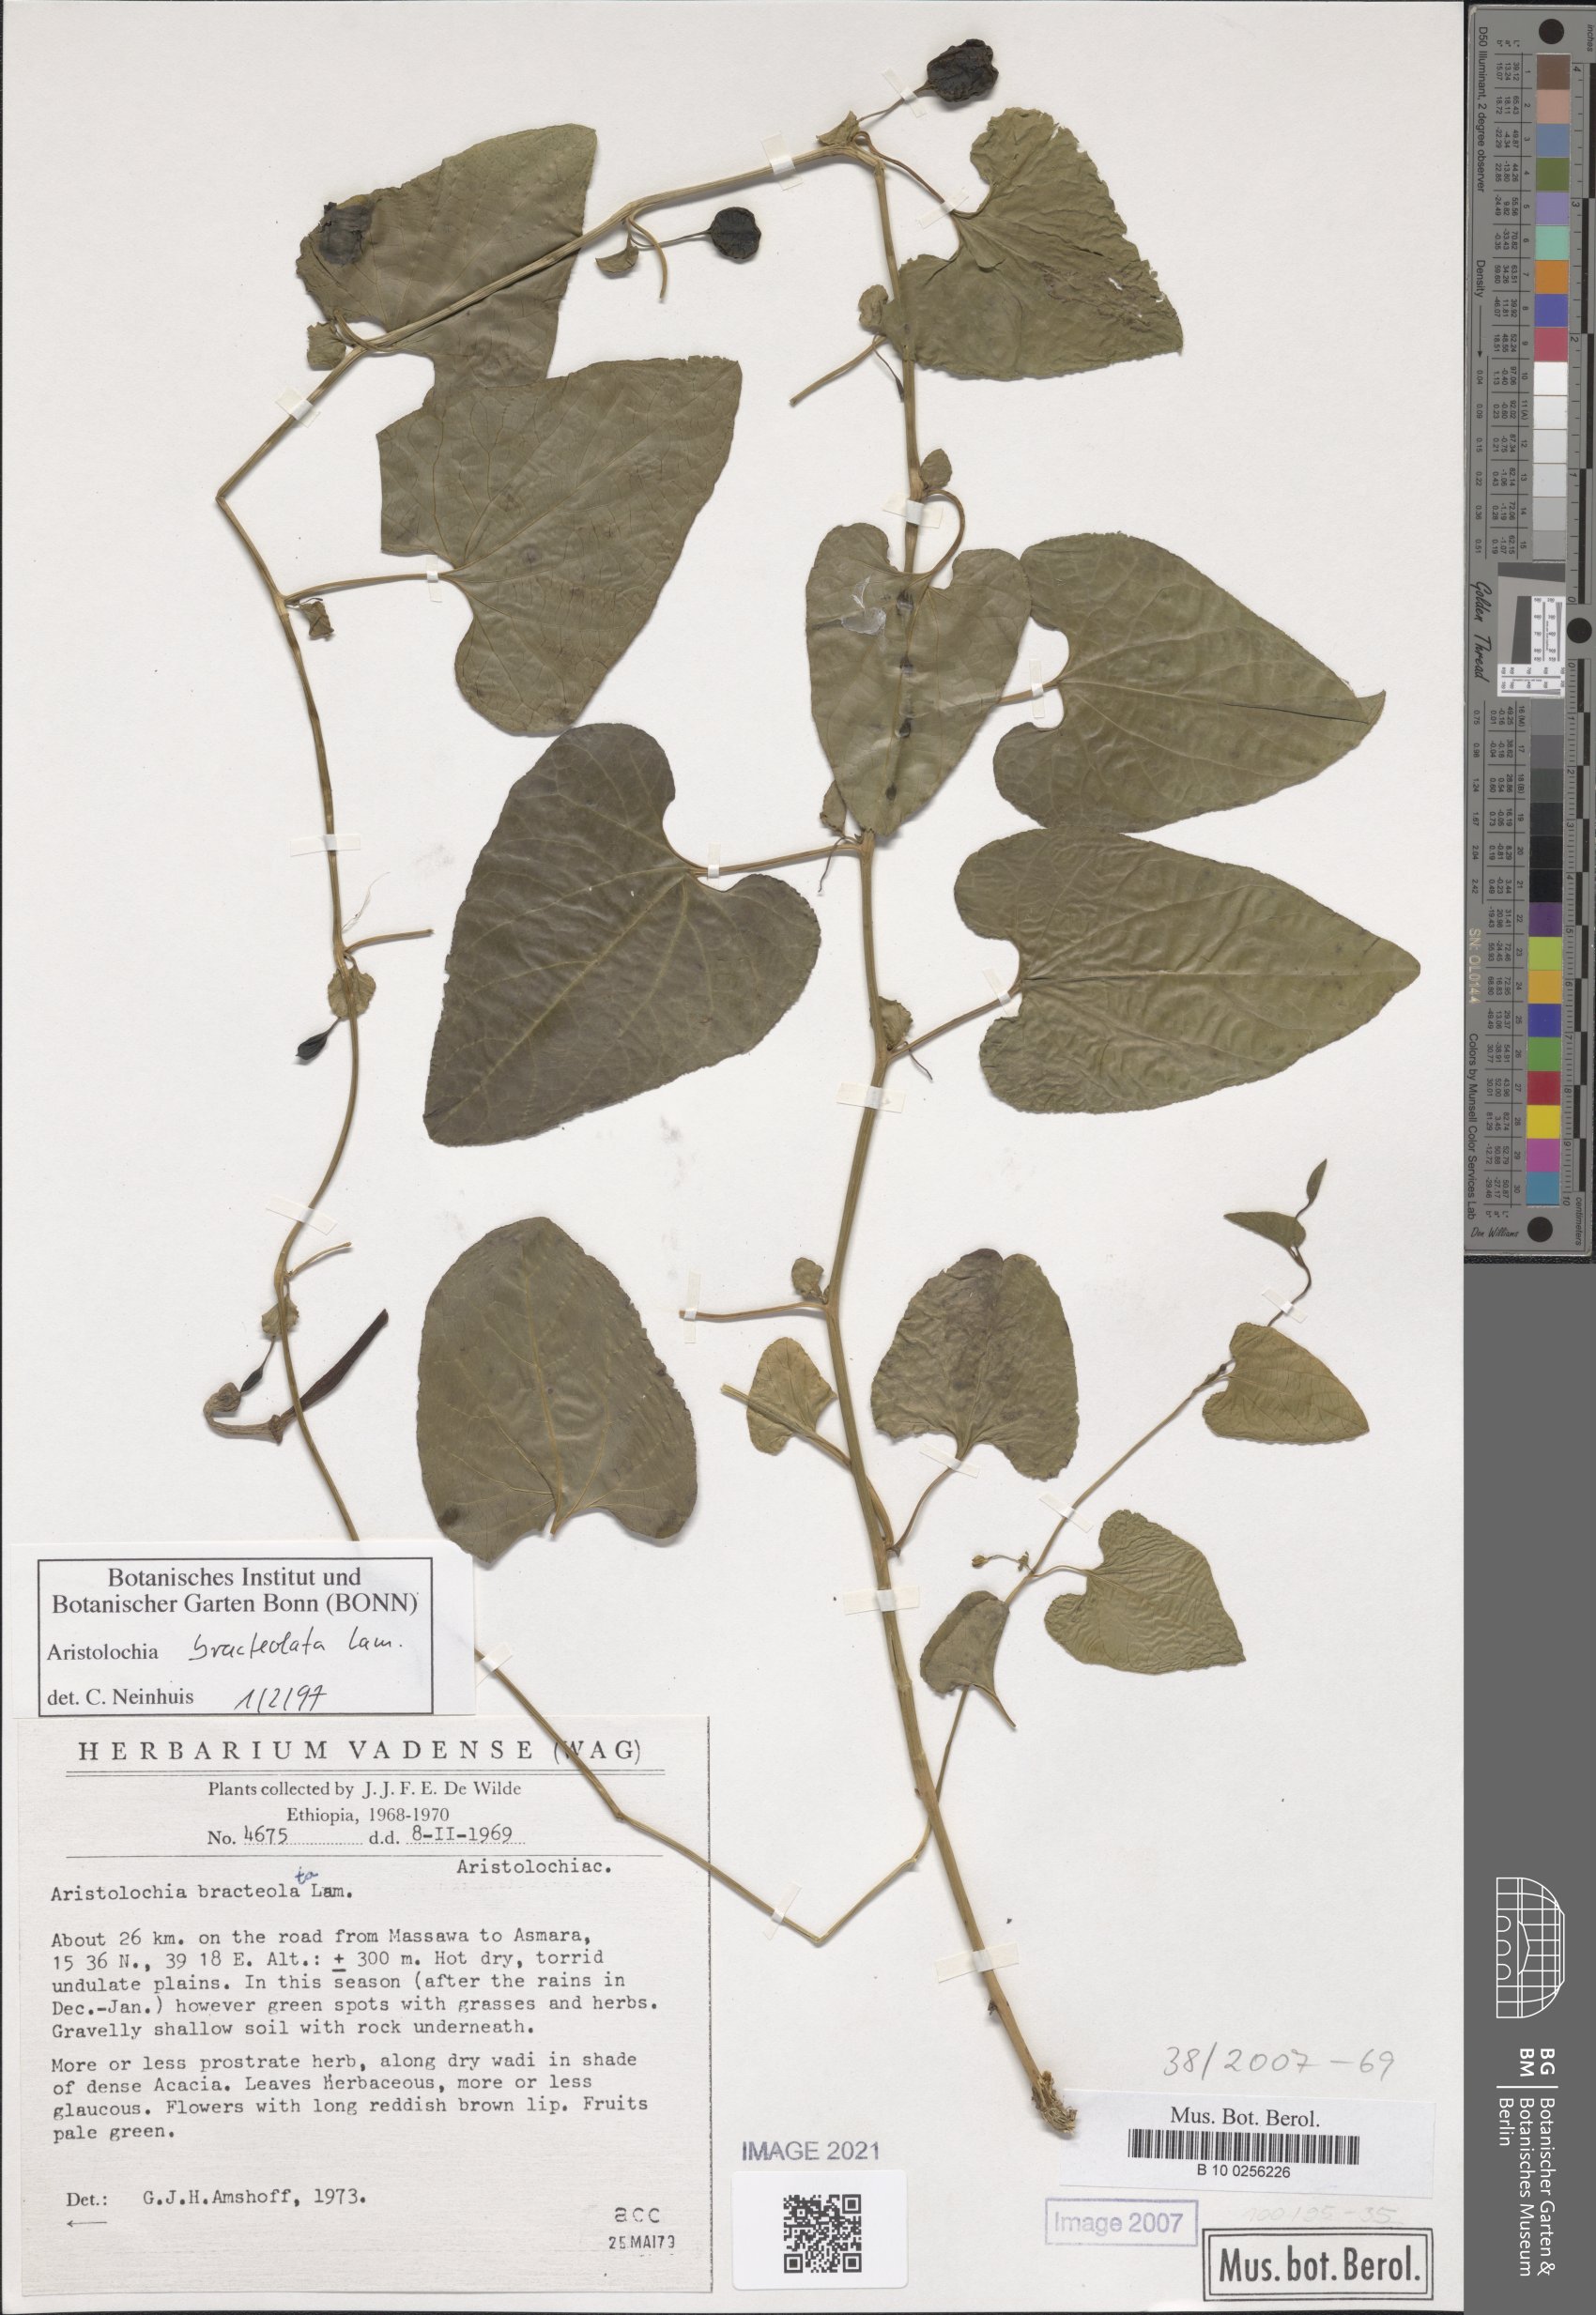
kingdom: Plantae
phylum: Tracheophyta
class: Magnoliopsida
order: Piperales
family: Aristolochiaceae
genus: Aristolochia
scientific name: Aristolochia bracteolata
